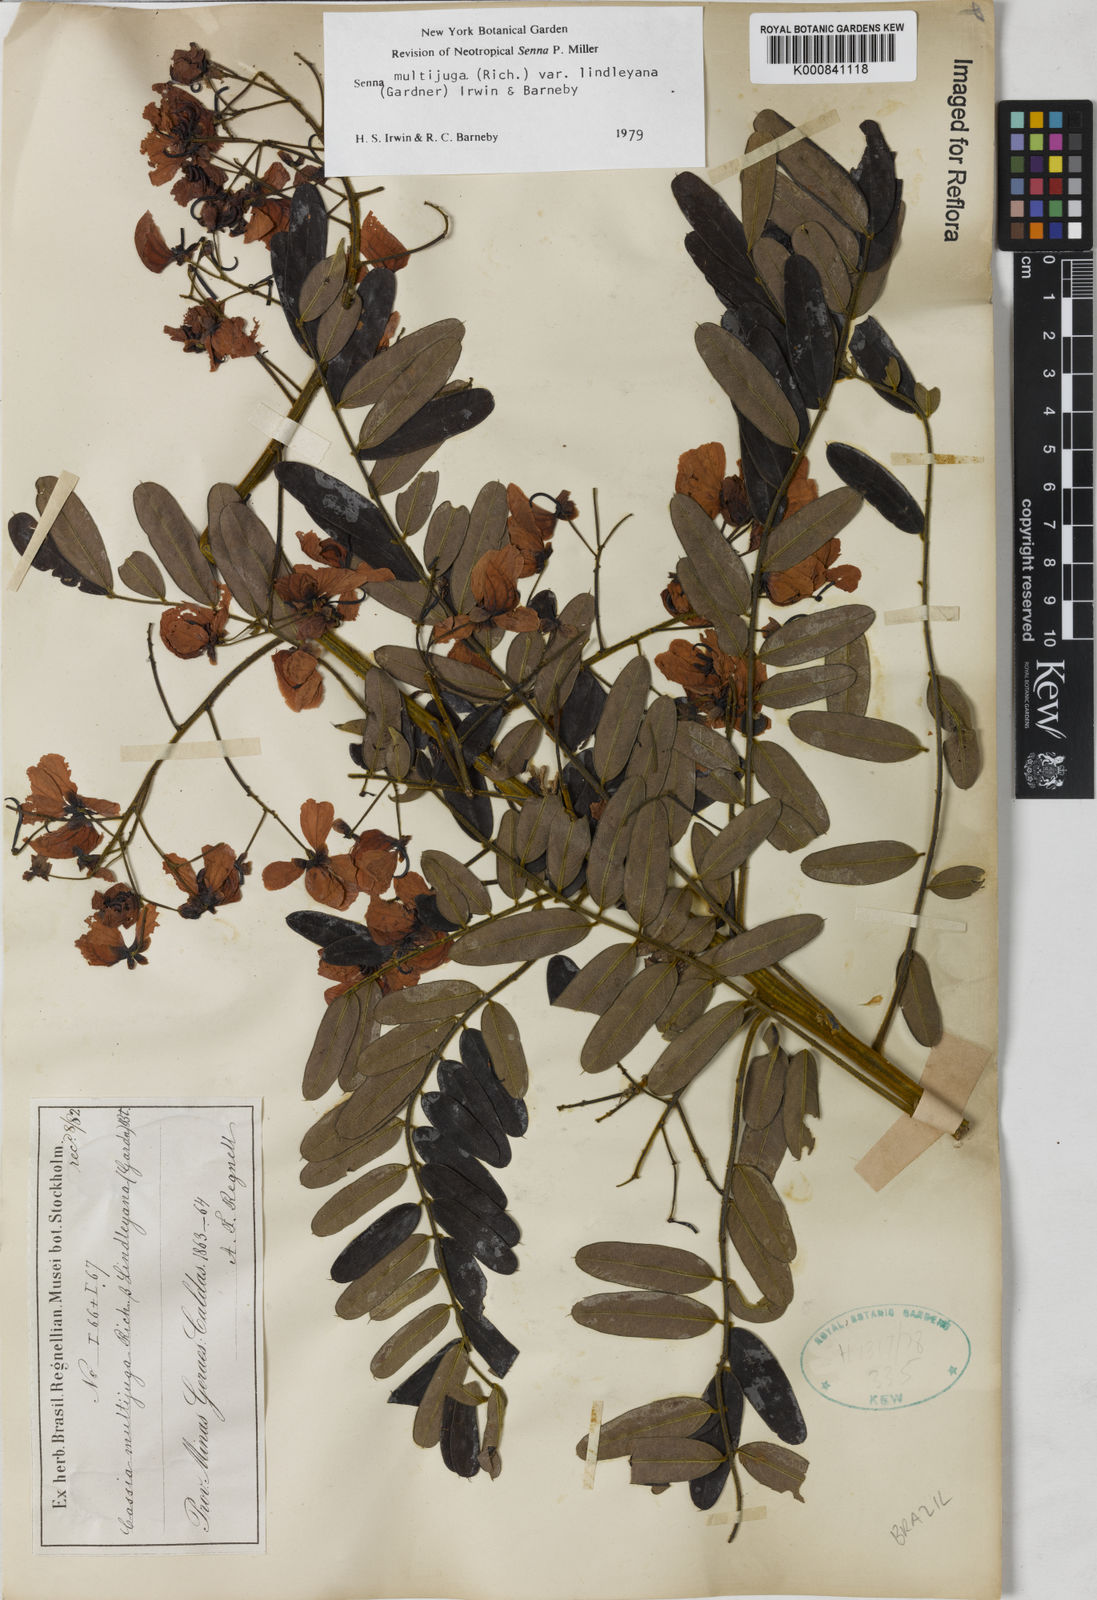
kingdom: Plantae
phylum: Tracheophyta
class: Magnoliopsida
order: Fabales
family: Fabaceae
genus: Senna
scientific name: Senna multijuga
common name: False sicklepod
